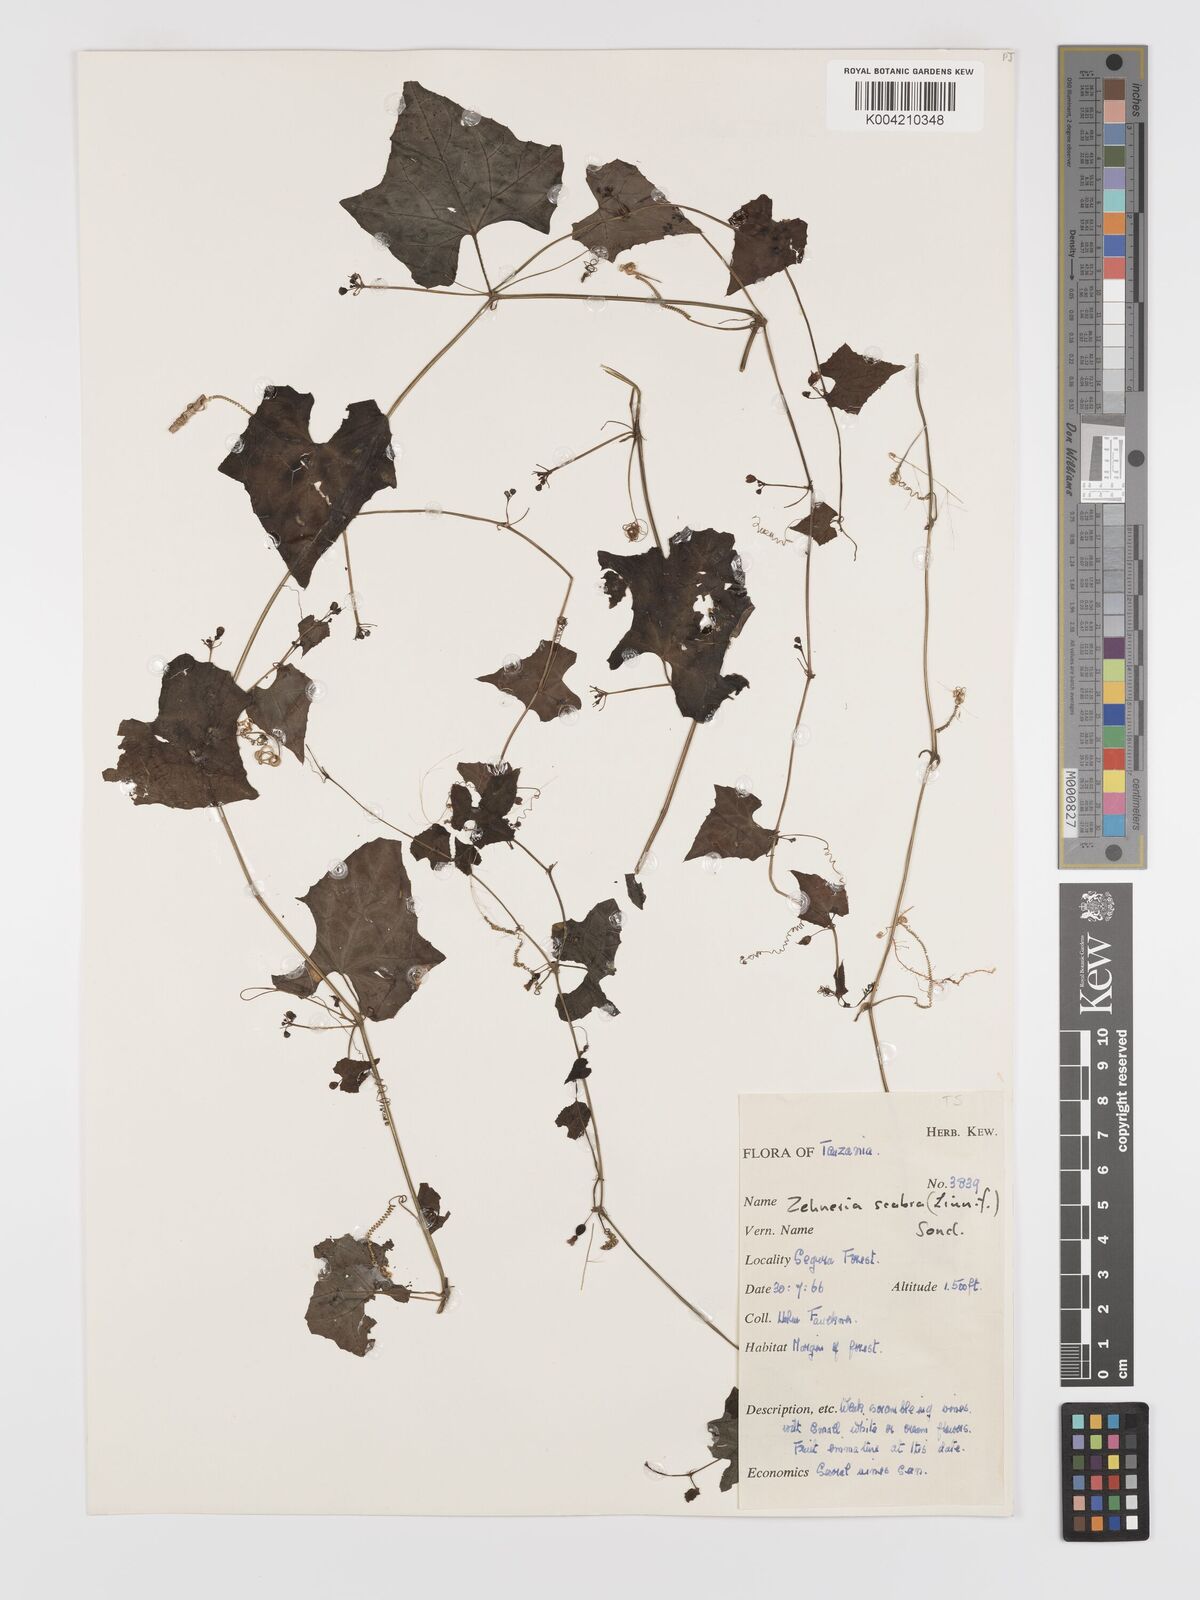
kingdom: Plantae
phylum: Tracheophyta
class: Magnoliopsida
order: Cucurbitales
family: Cucurbitaceae
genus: Zehneria
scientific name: Zehneria emirnensis
